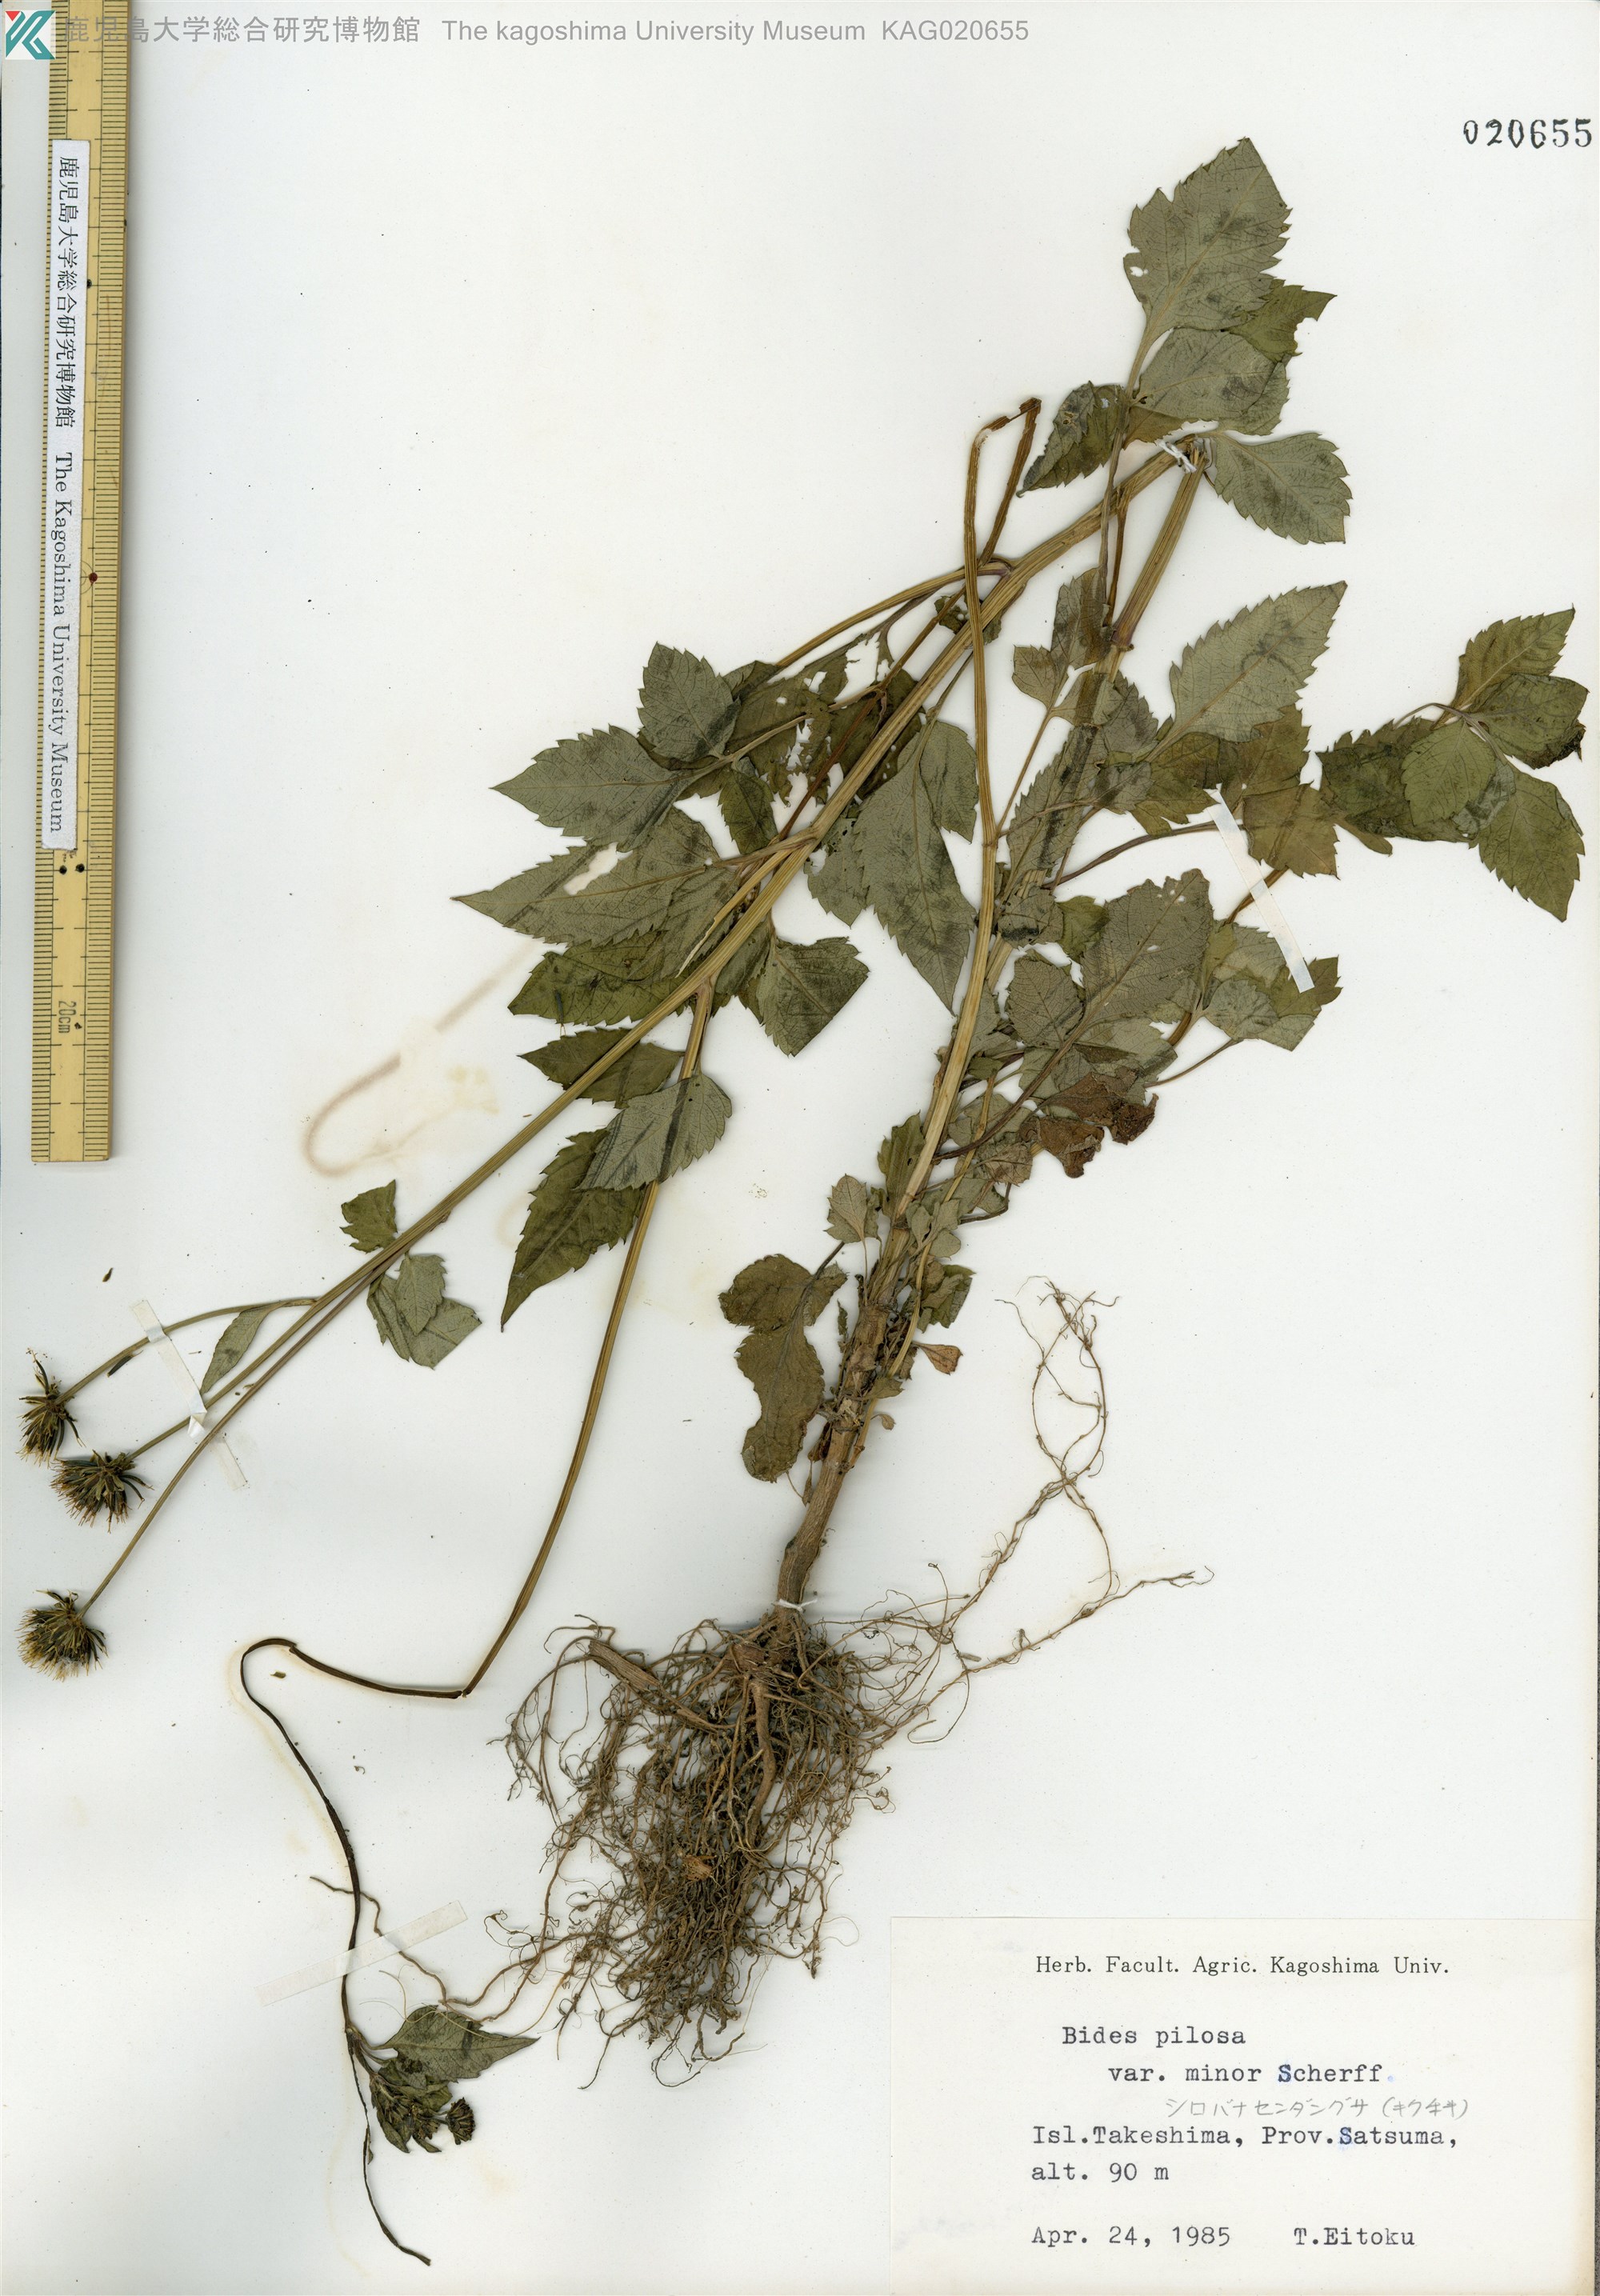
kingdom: Plantae
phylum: Tracheophyta
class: Magnoliopsida
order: Asterales
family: Asteraceae
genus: Bidens
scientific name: Bidens pilosa
